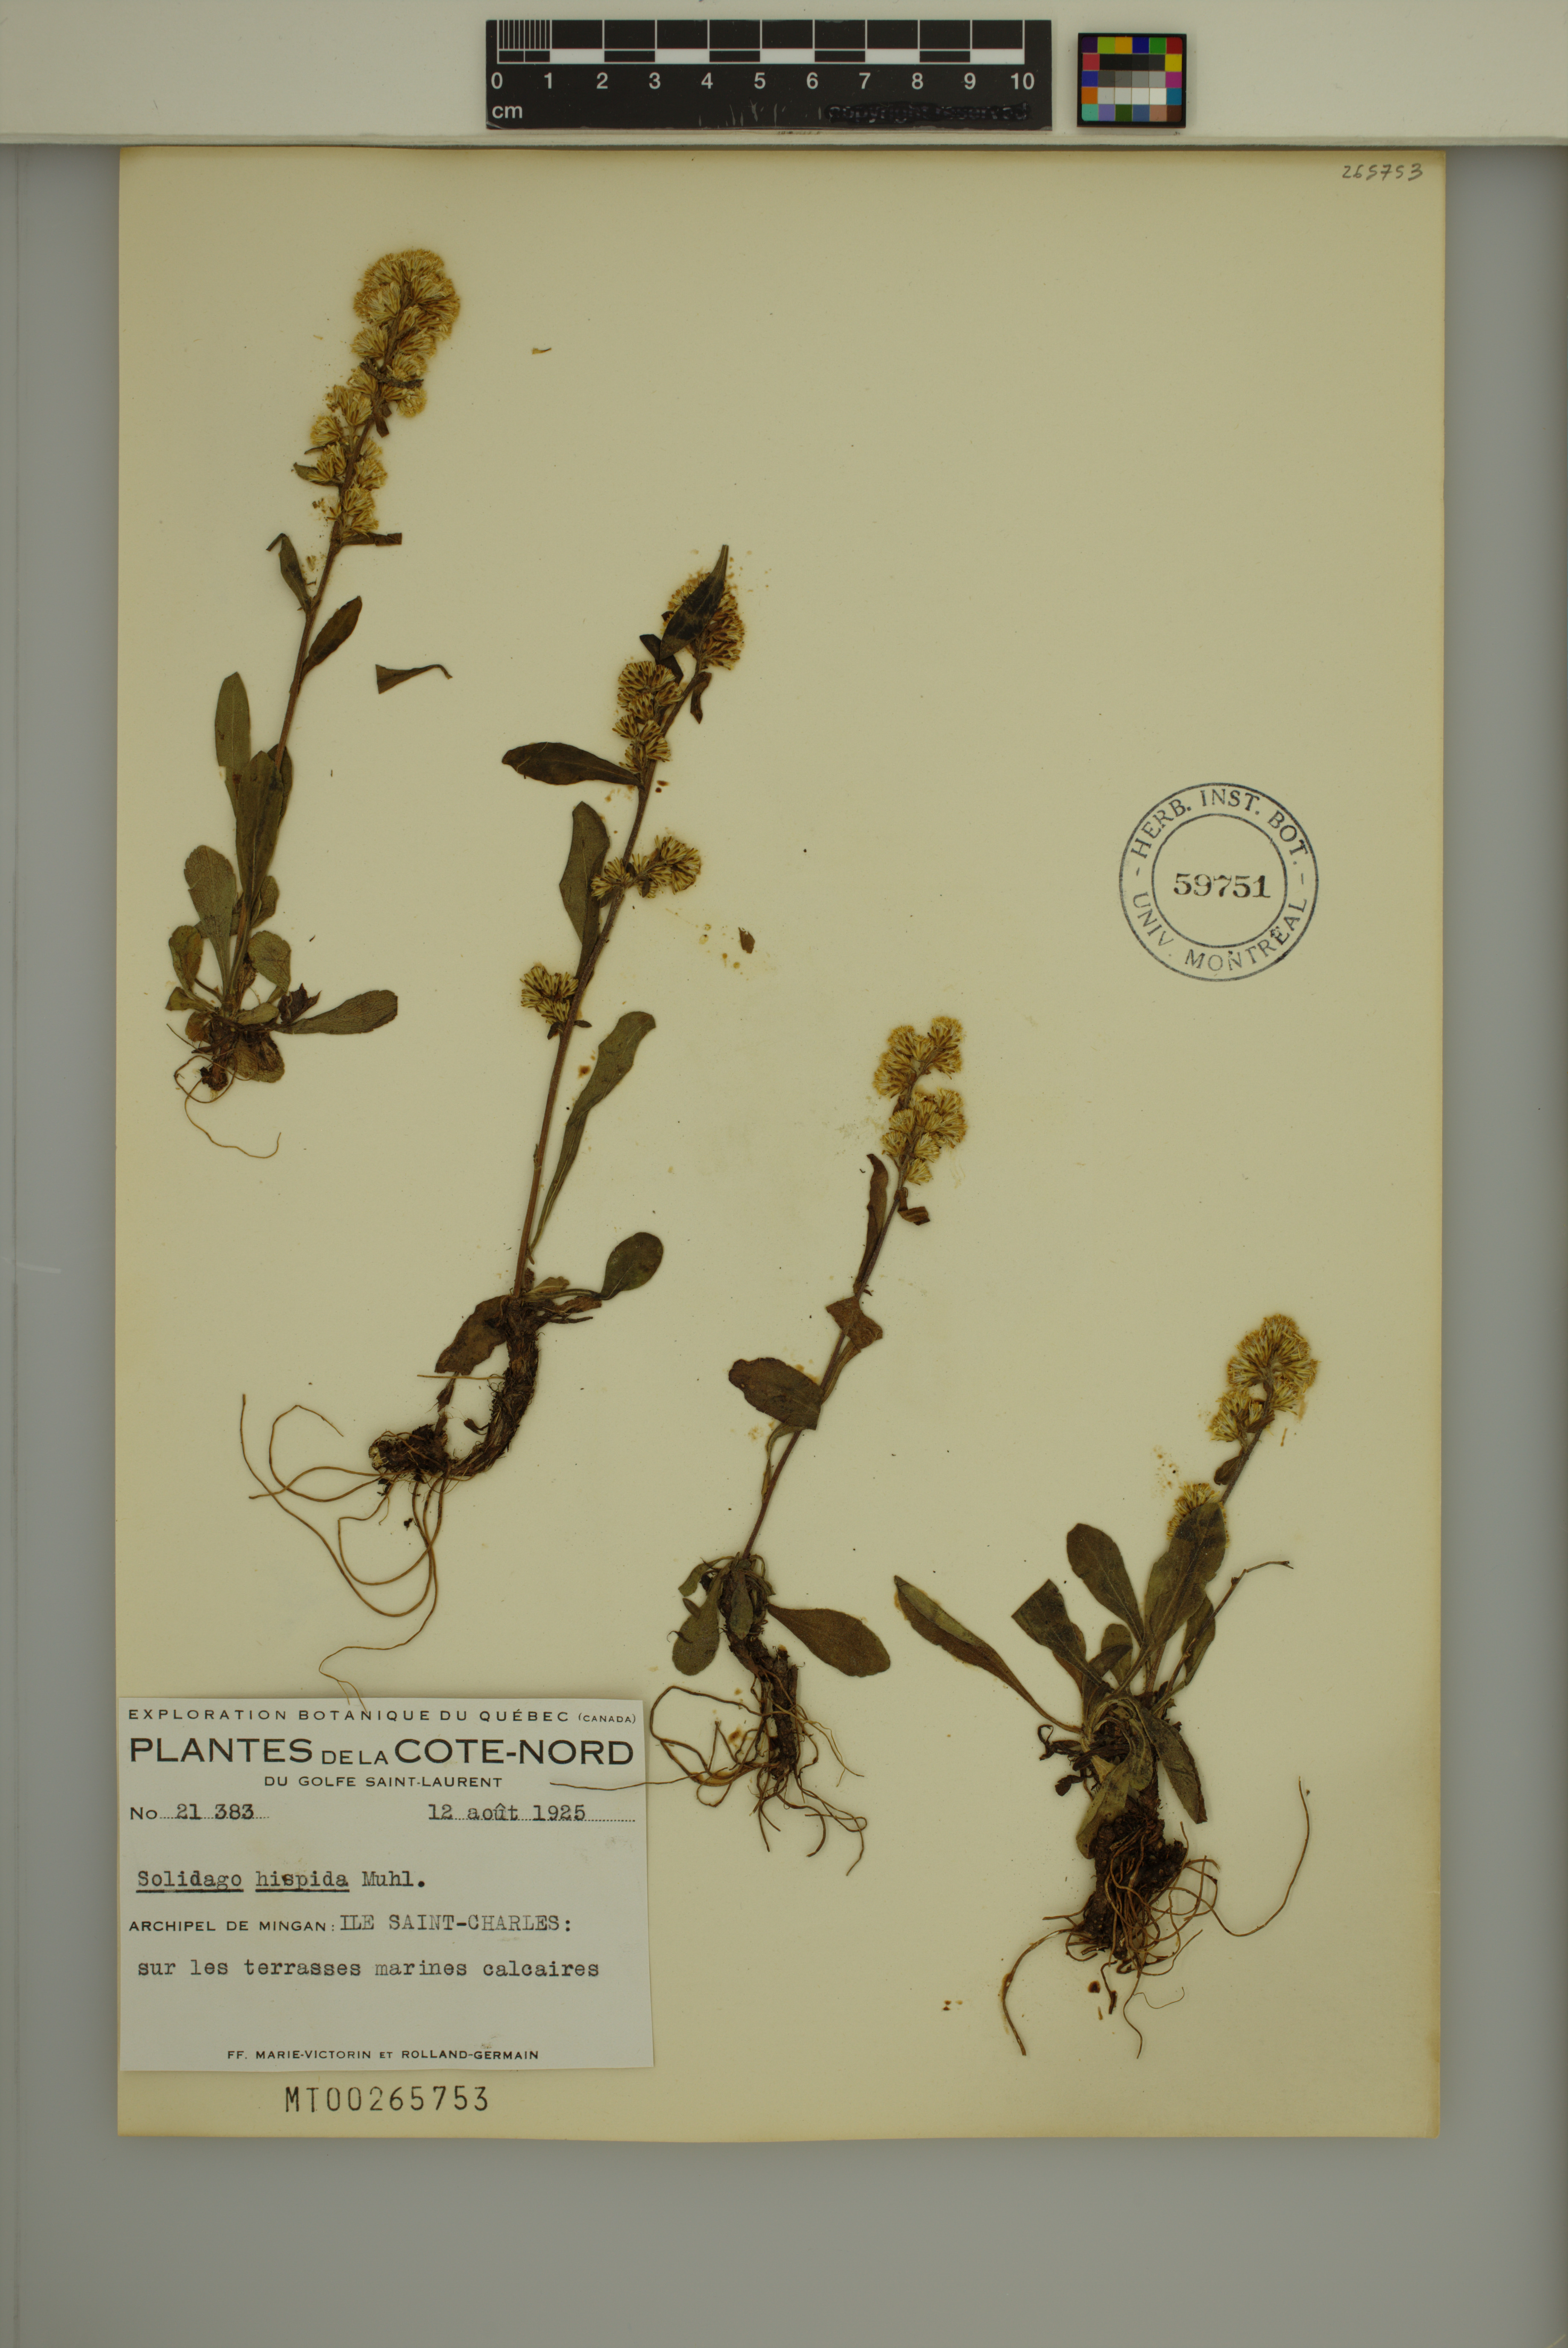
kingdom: Plantae
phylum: Tracheophyta
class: Magnoliopsida
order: Asterales
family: Asteraceae
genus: Solidago
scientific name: Solidago hispida
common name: Hairy goldenrod
